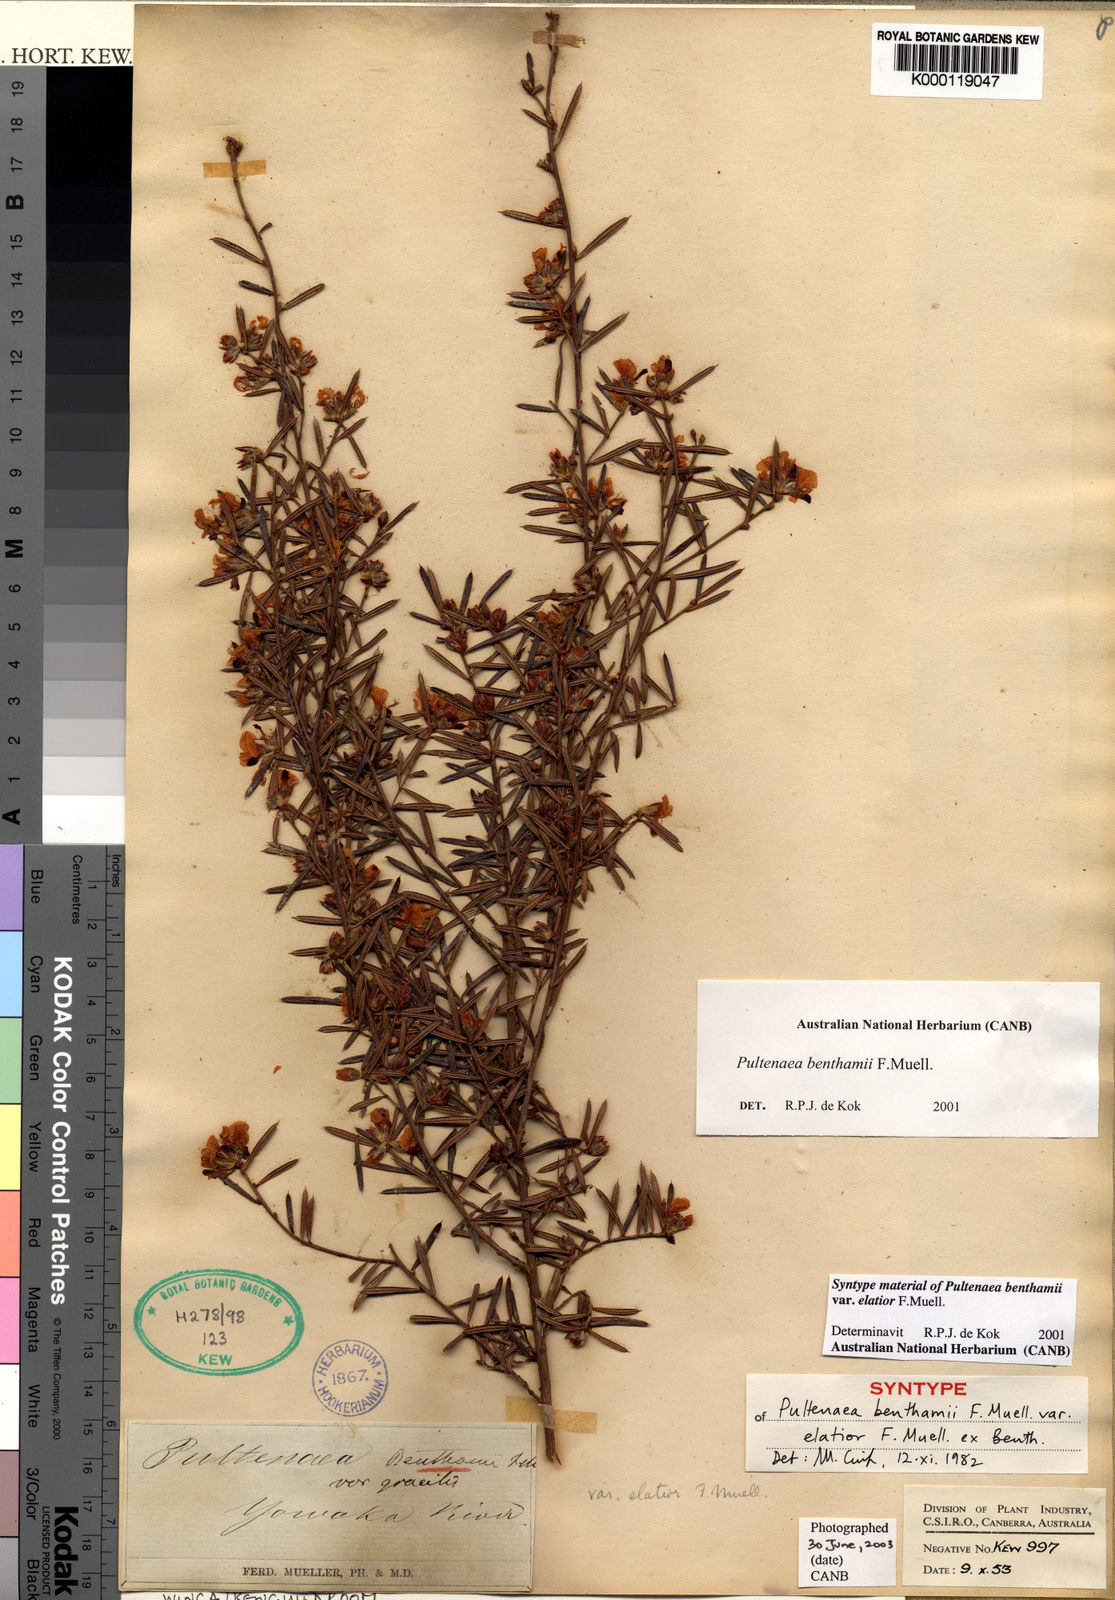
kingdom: Plantae
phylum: Tracheophyta
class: Magnoliopsida
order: Fabales
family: Fabaceae
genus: Pultenaea
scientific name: Pultenaea benthamii
